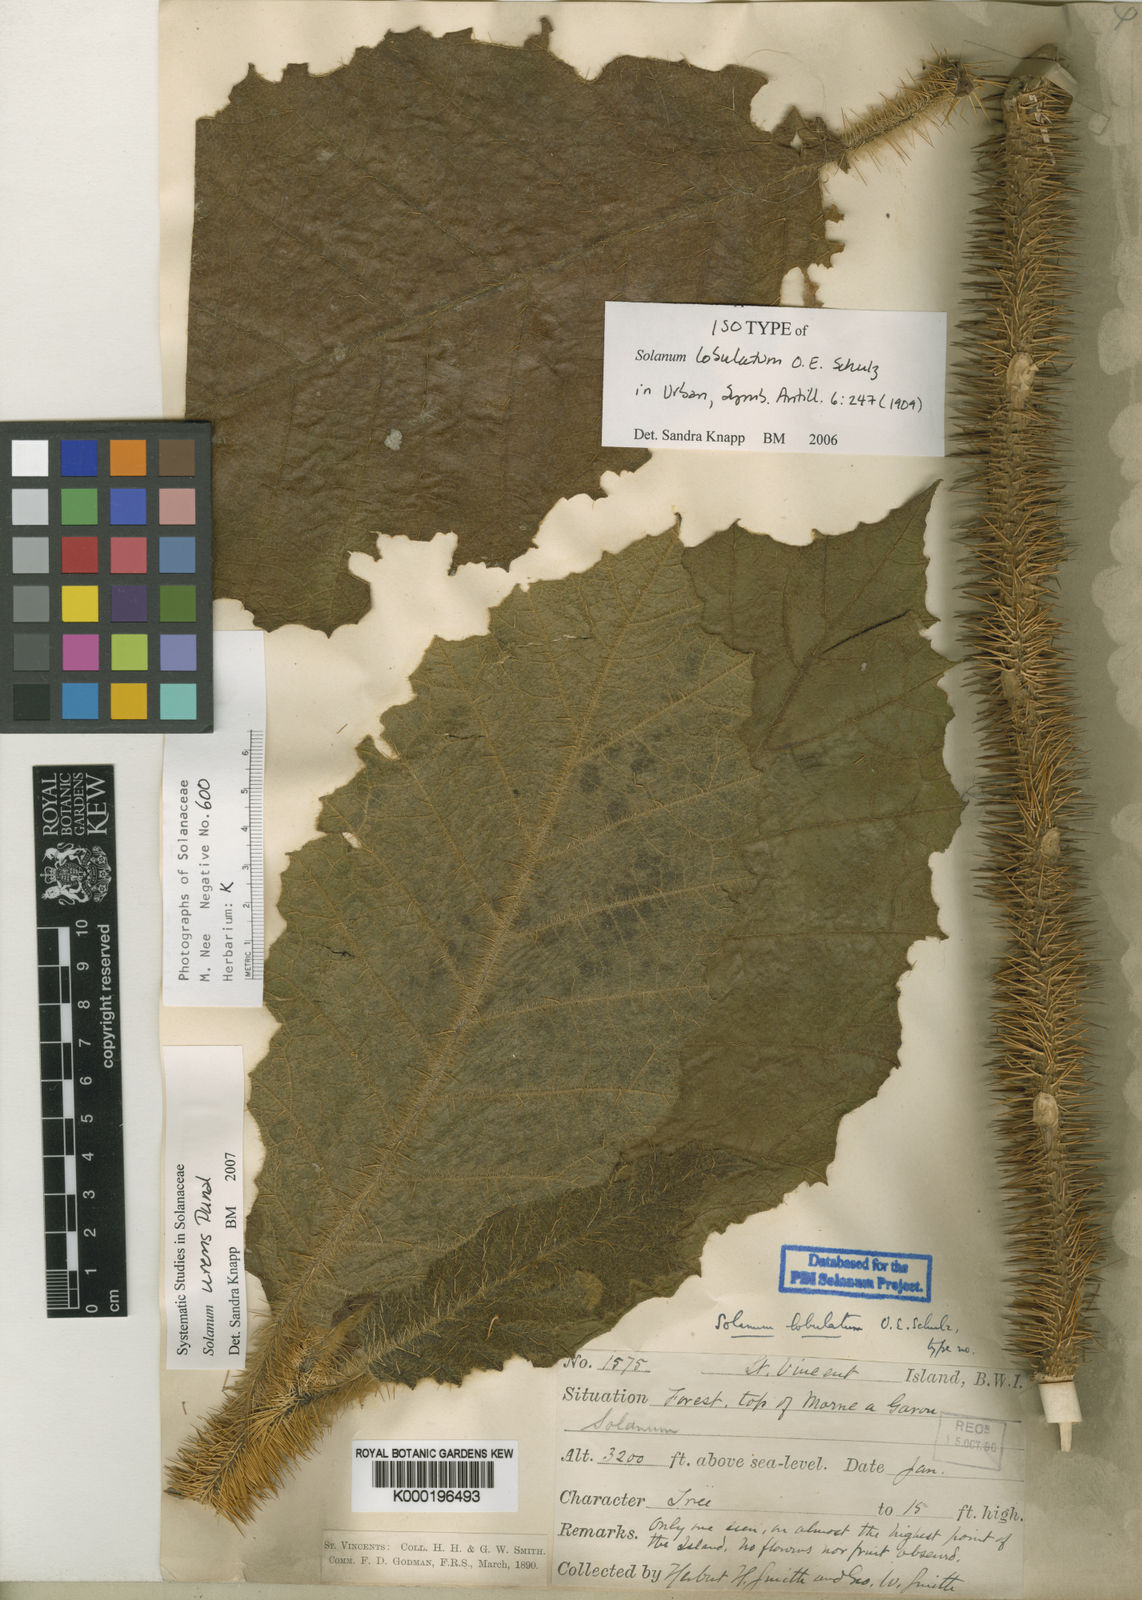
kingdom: Plantae
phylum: Tracheophyta
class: Magnoliopsida
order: Solanales
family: Solanaceae
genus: Solanum
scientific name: Solanum urens
